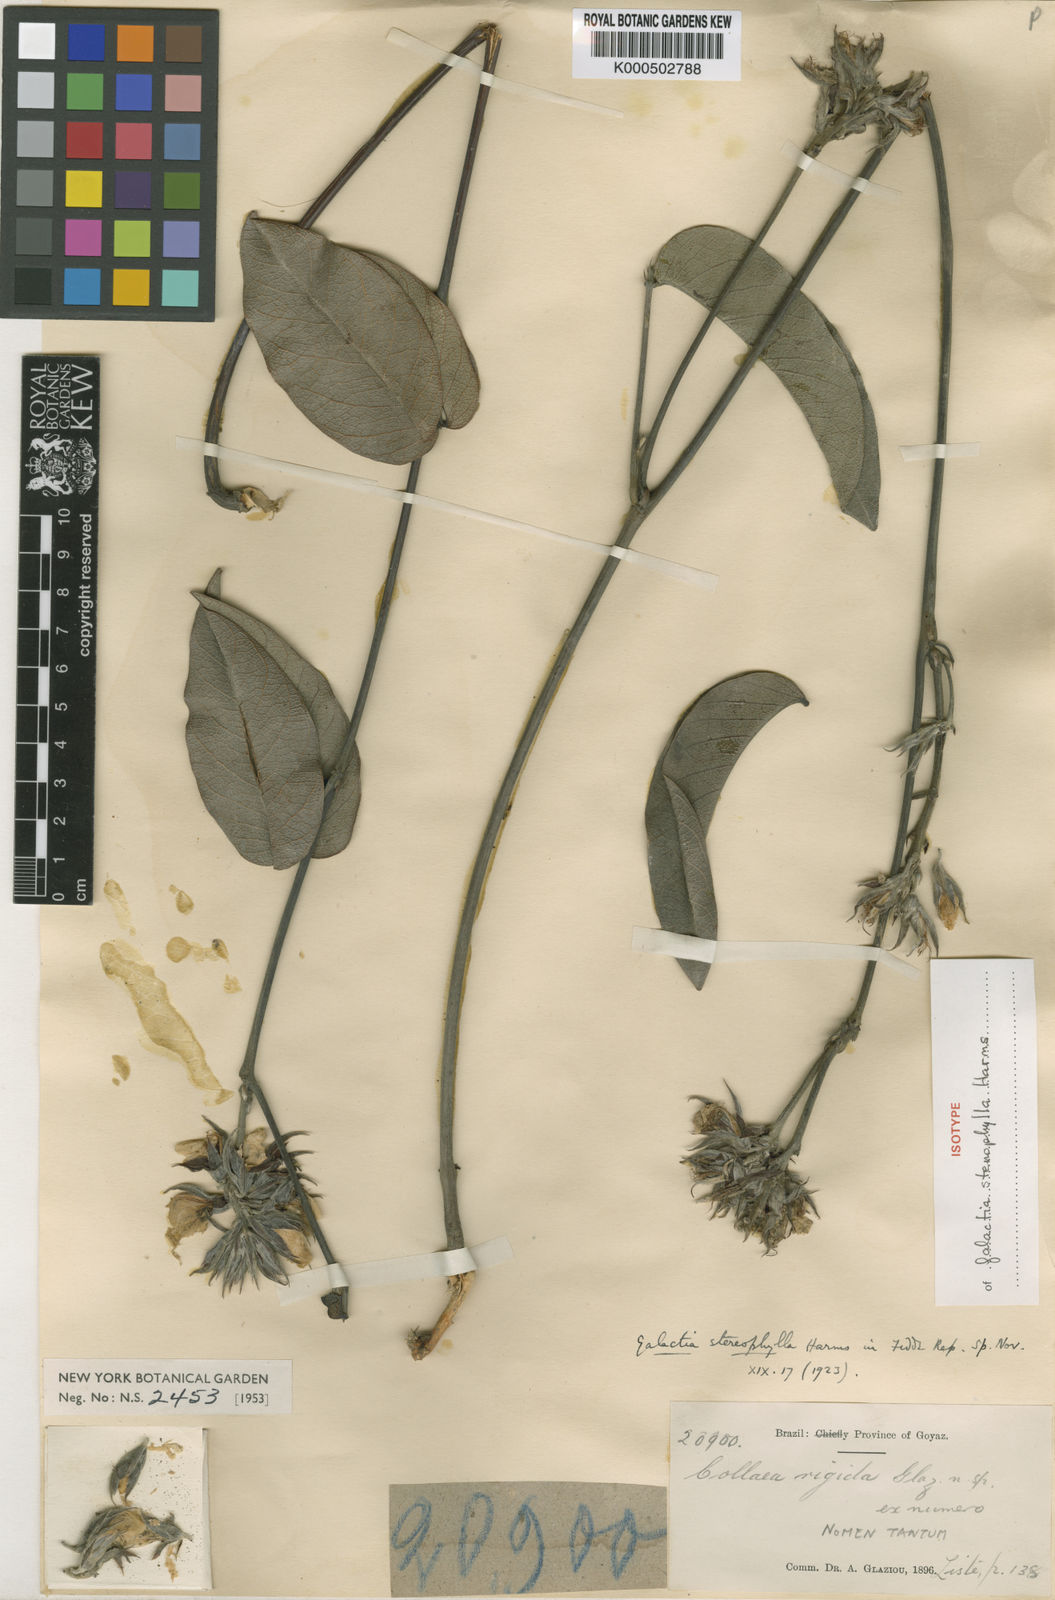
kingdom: Plantae
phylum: Tracheophyta
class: Magnoliopsida
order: Fabales
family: Fabaceae
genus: Betencourtia
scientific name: Betencourtia stereophylla
